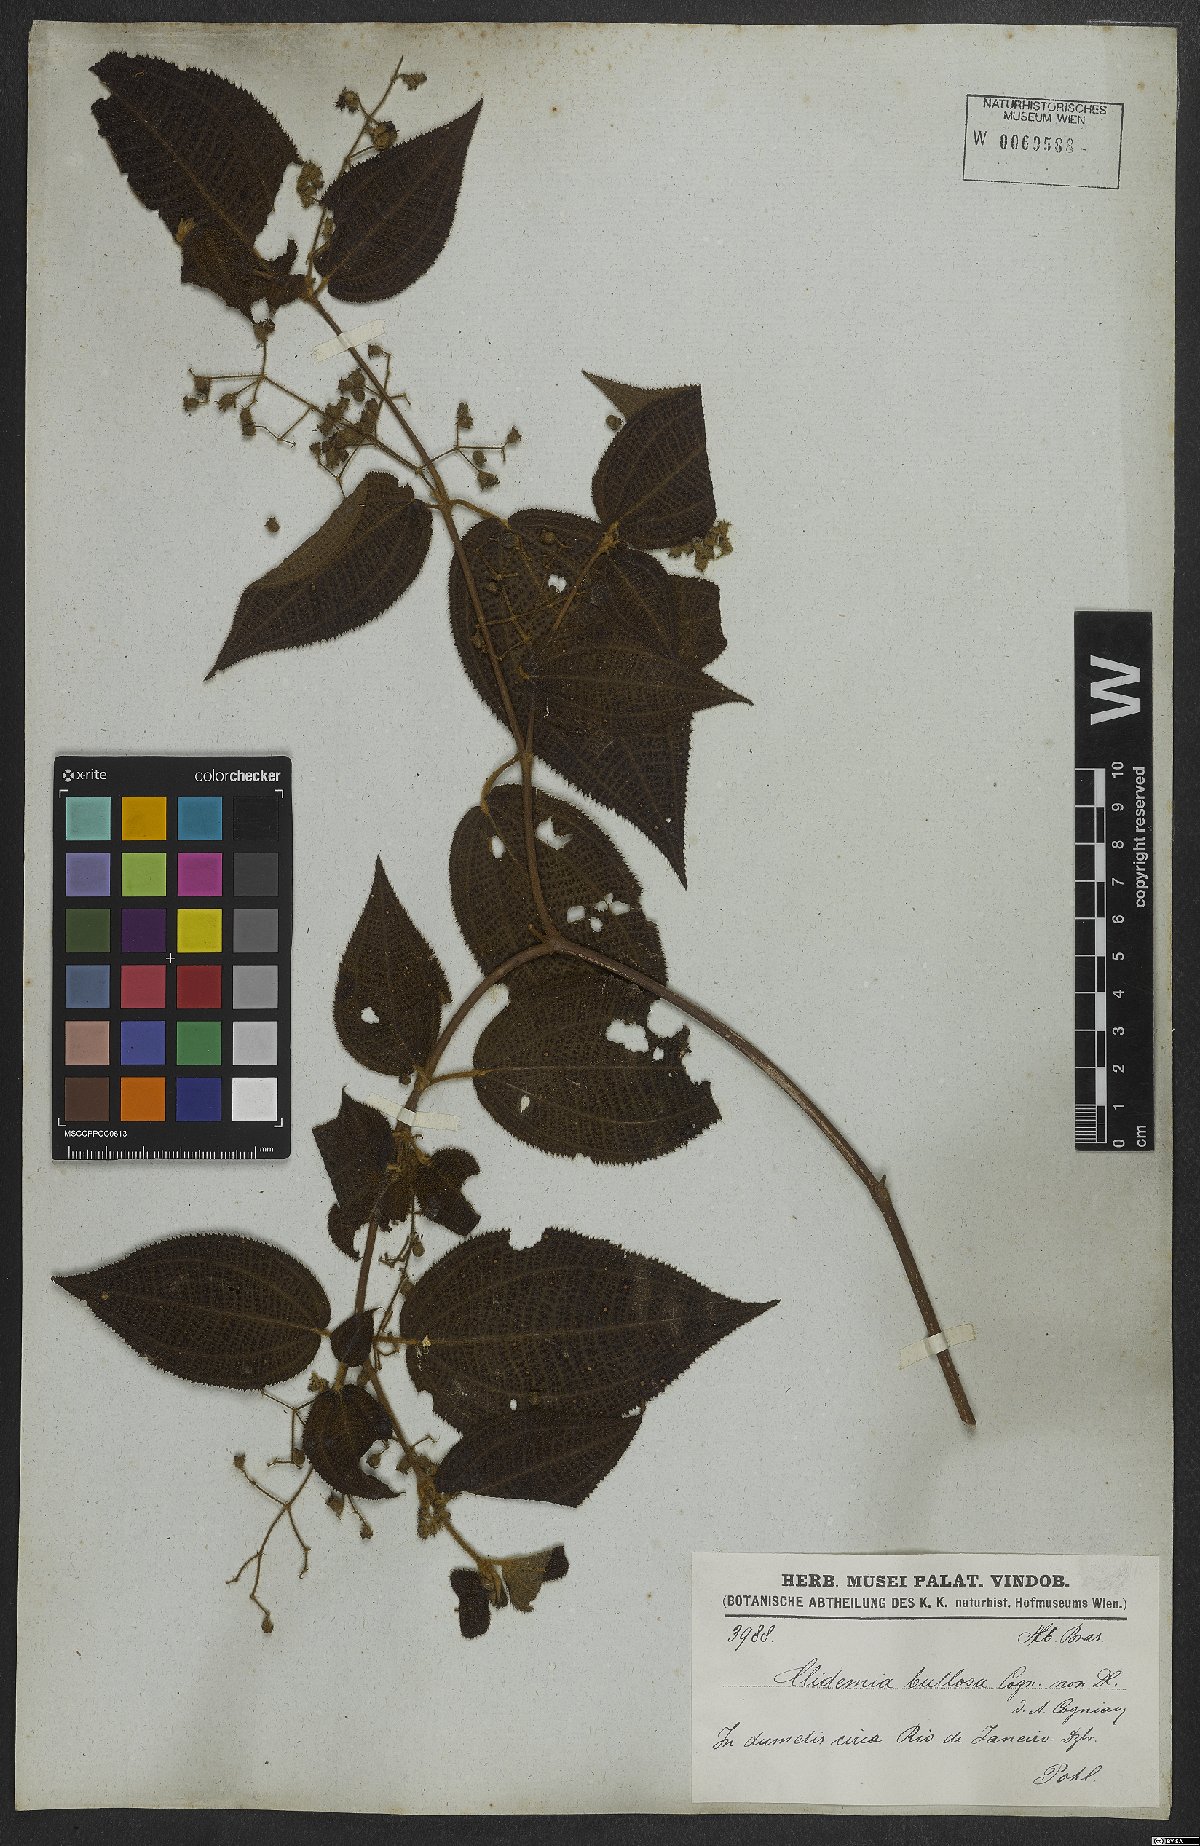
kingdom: Plantae
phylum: Tracheophyta
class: Magnoliopsida
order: Myrtales
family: Melastomataceae
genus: Miconia
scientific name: Miconia bullosa
